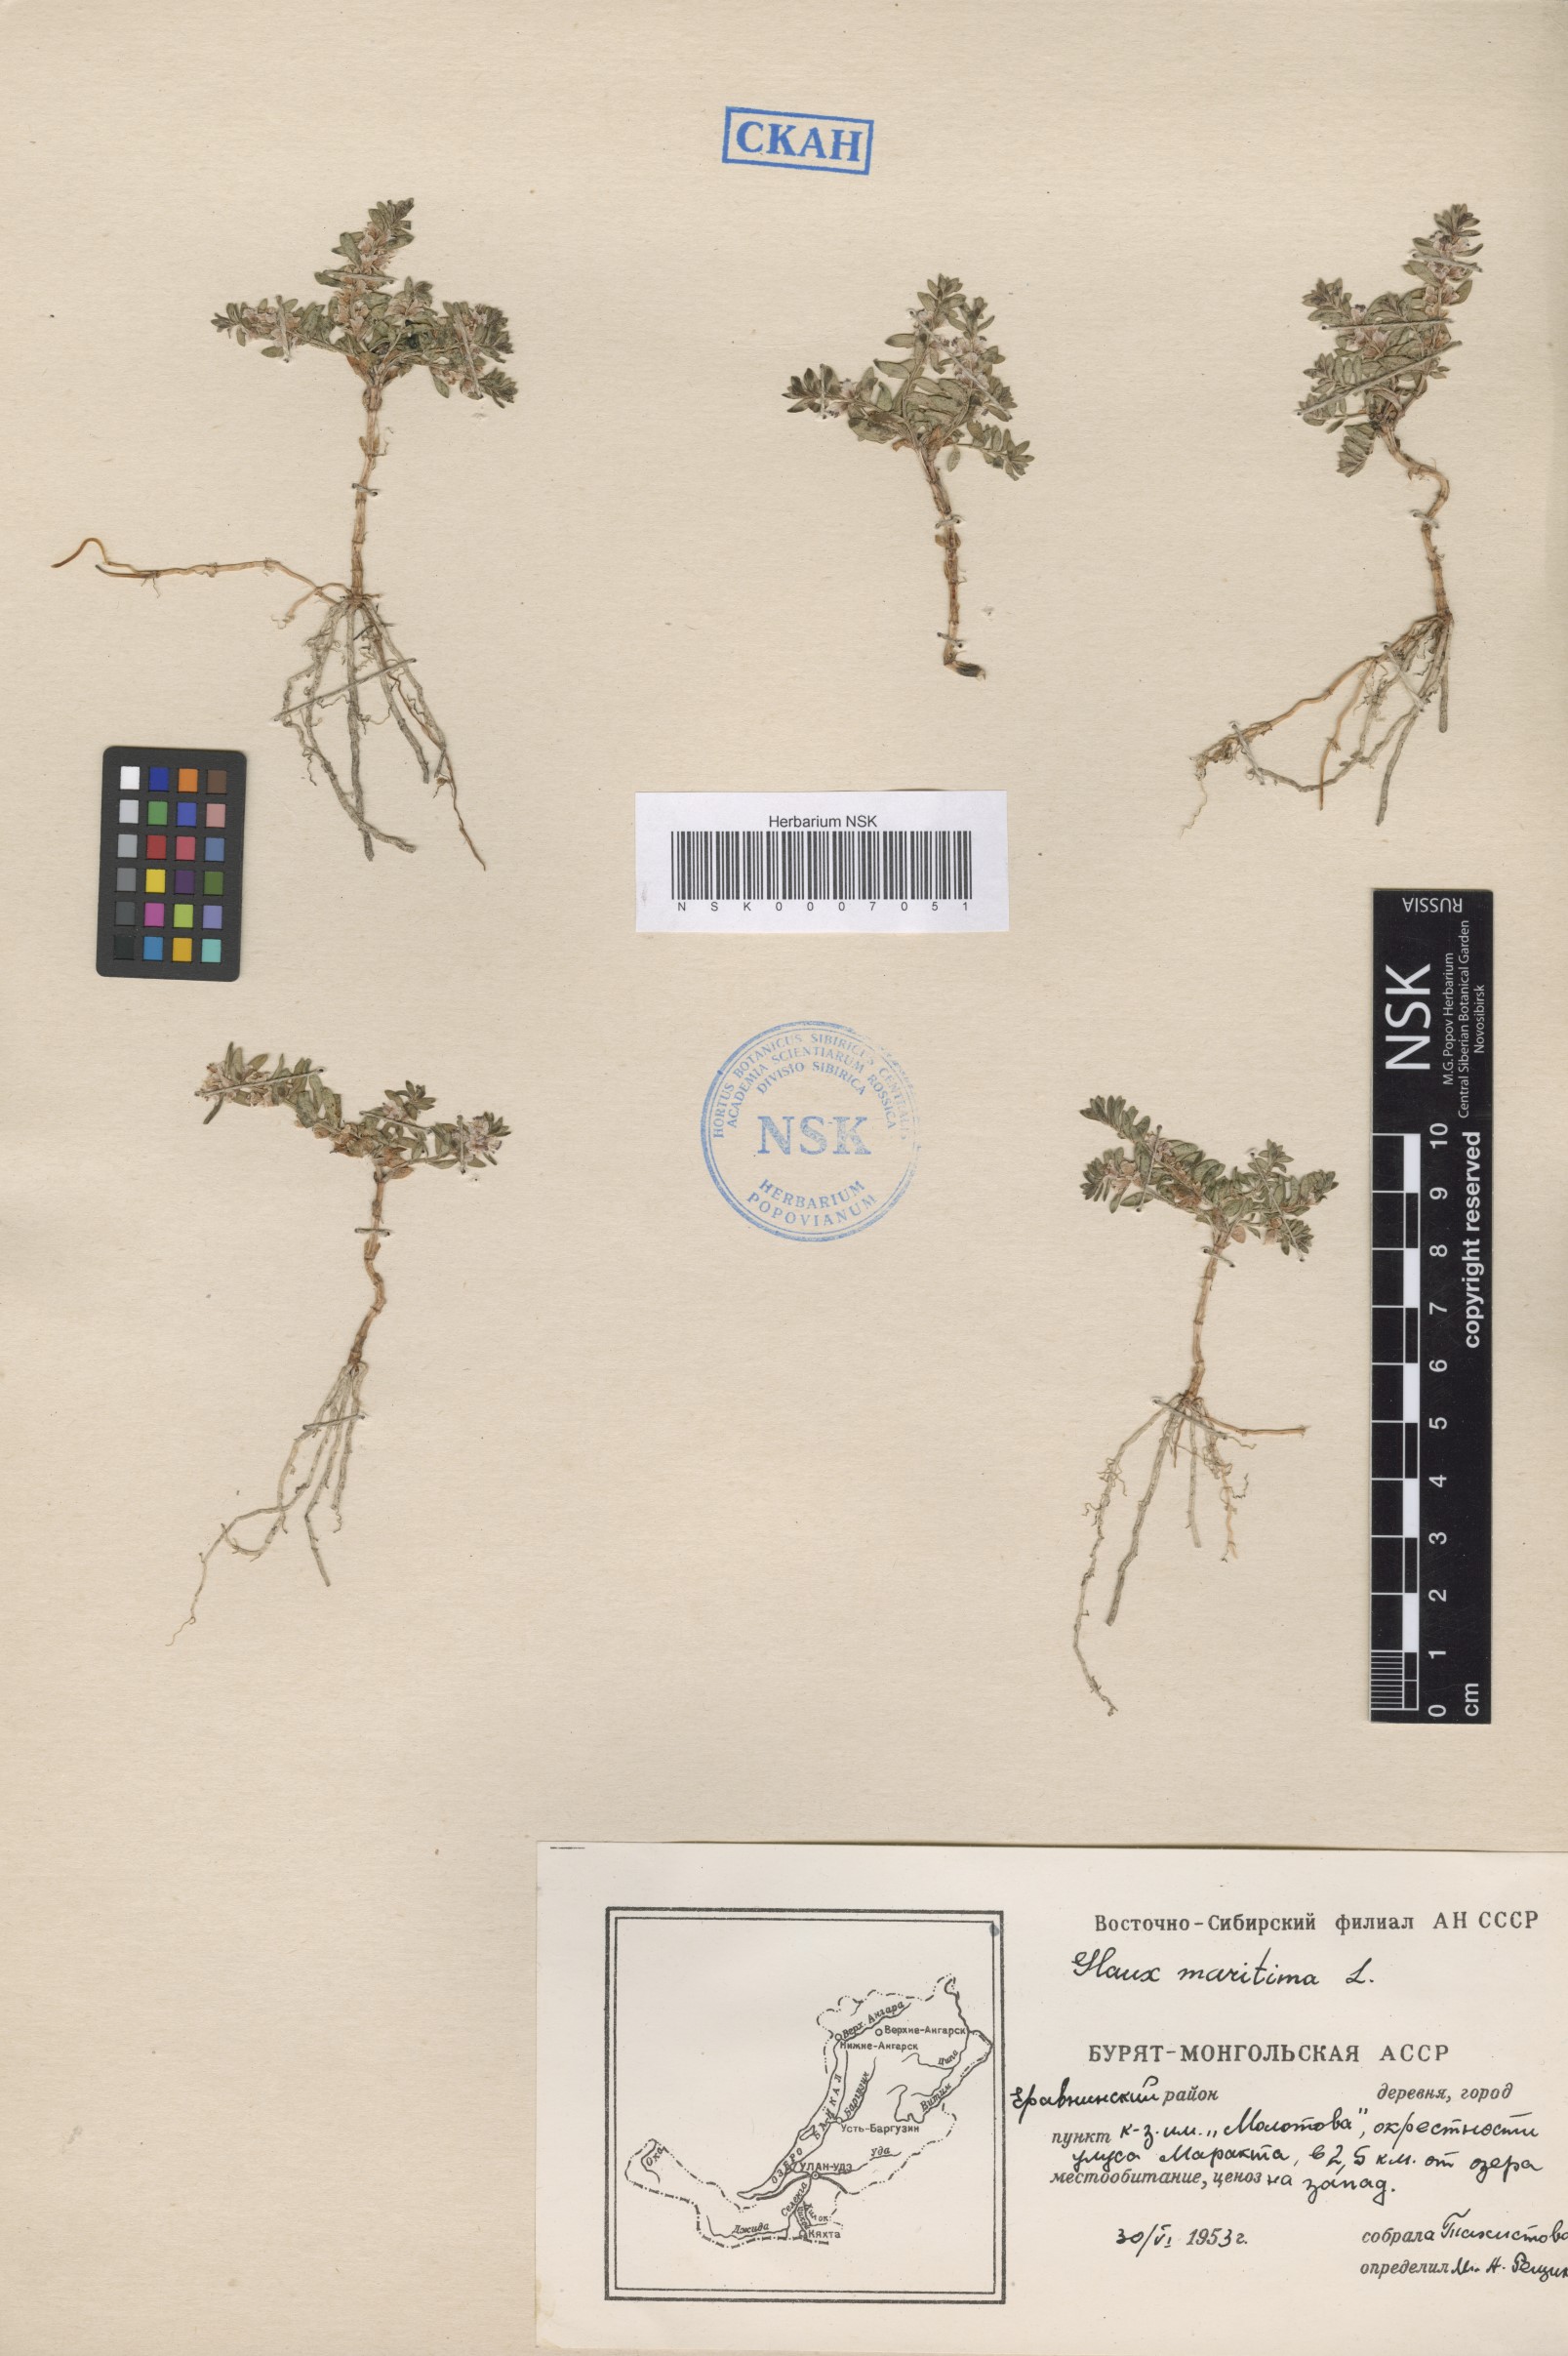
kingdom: Plantae
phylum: Tracheophyta
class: Magnoliopsida
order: Ericales
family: Primulaceae
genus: Lysimachia
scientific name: Lysimachia maritima
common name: Sea milkwort
